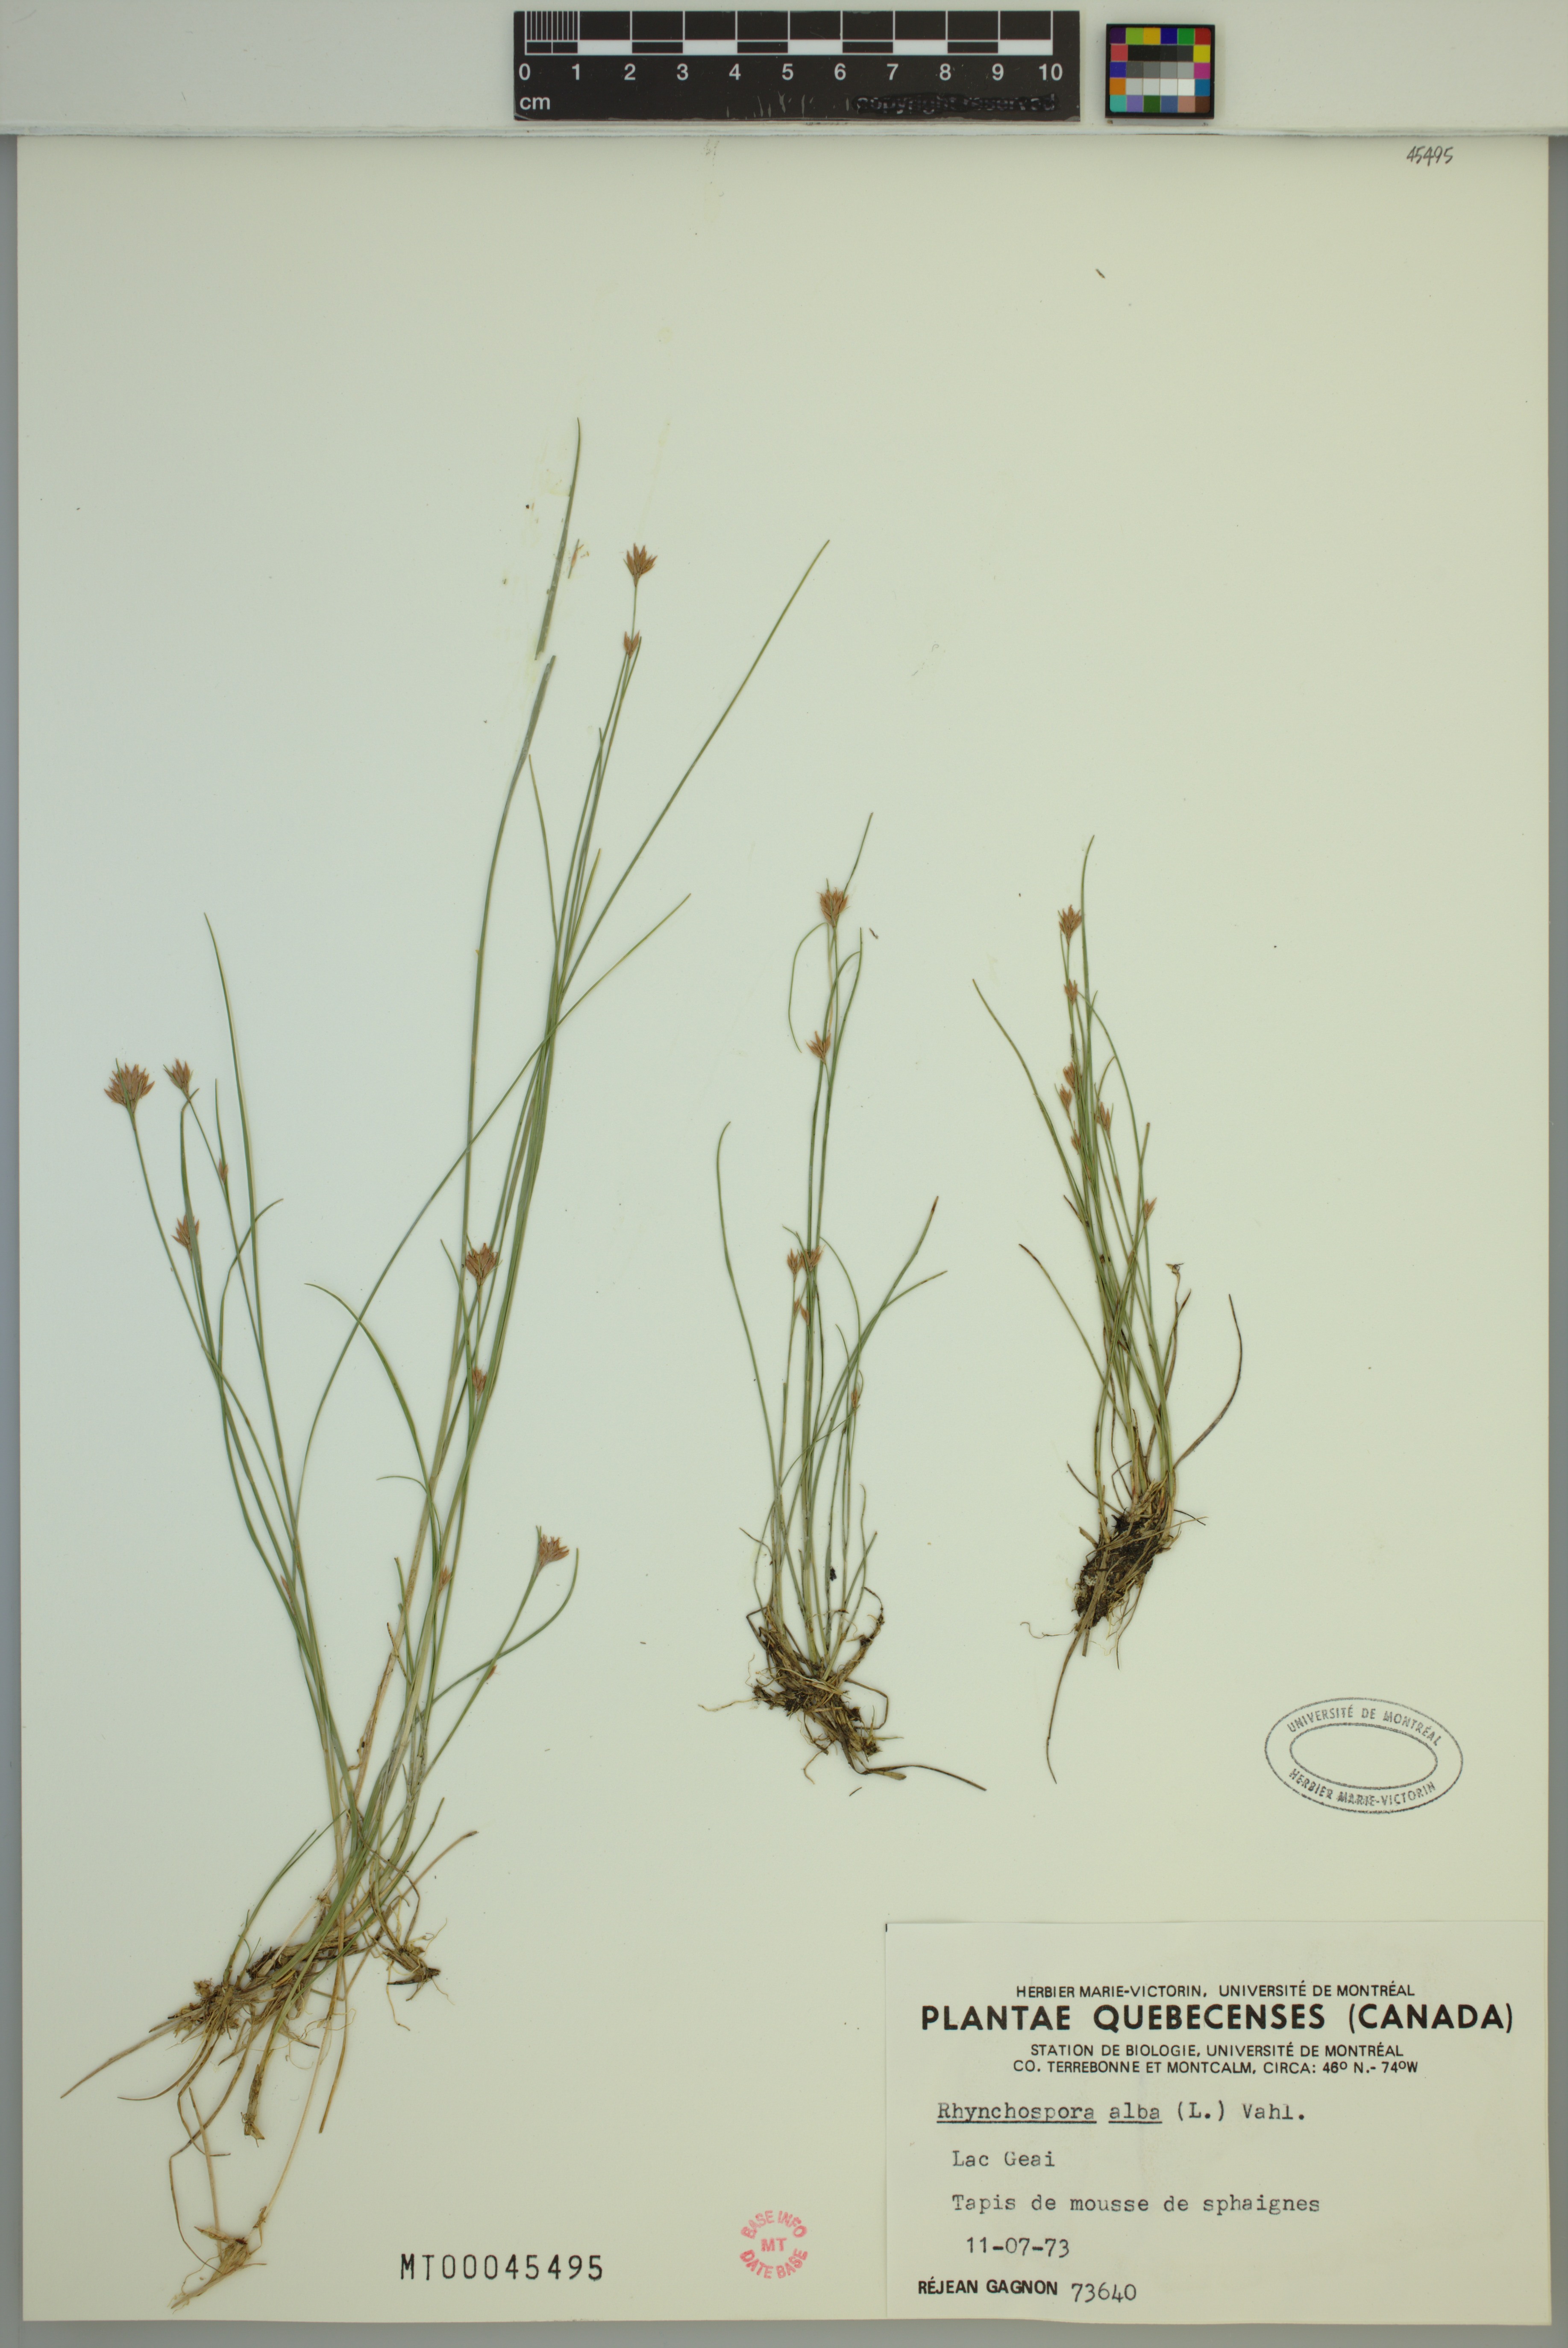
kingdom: Plantae
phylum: Tracheophyta
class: Liliopsida
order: Poales
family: Cyperaceae
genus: Rhynchospora
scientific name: Rhynchospora alba
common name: White beak-sedge
